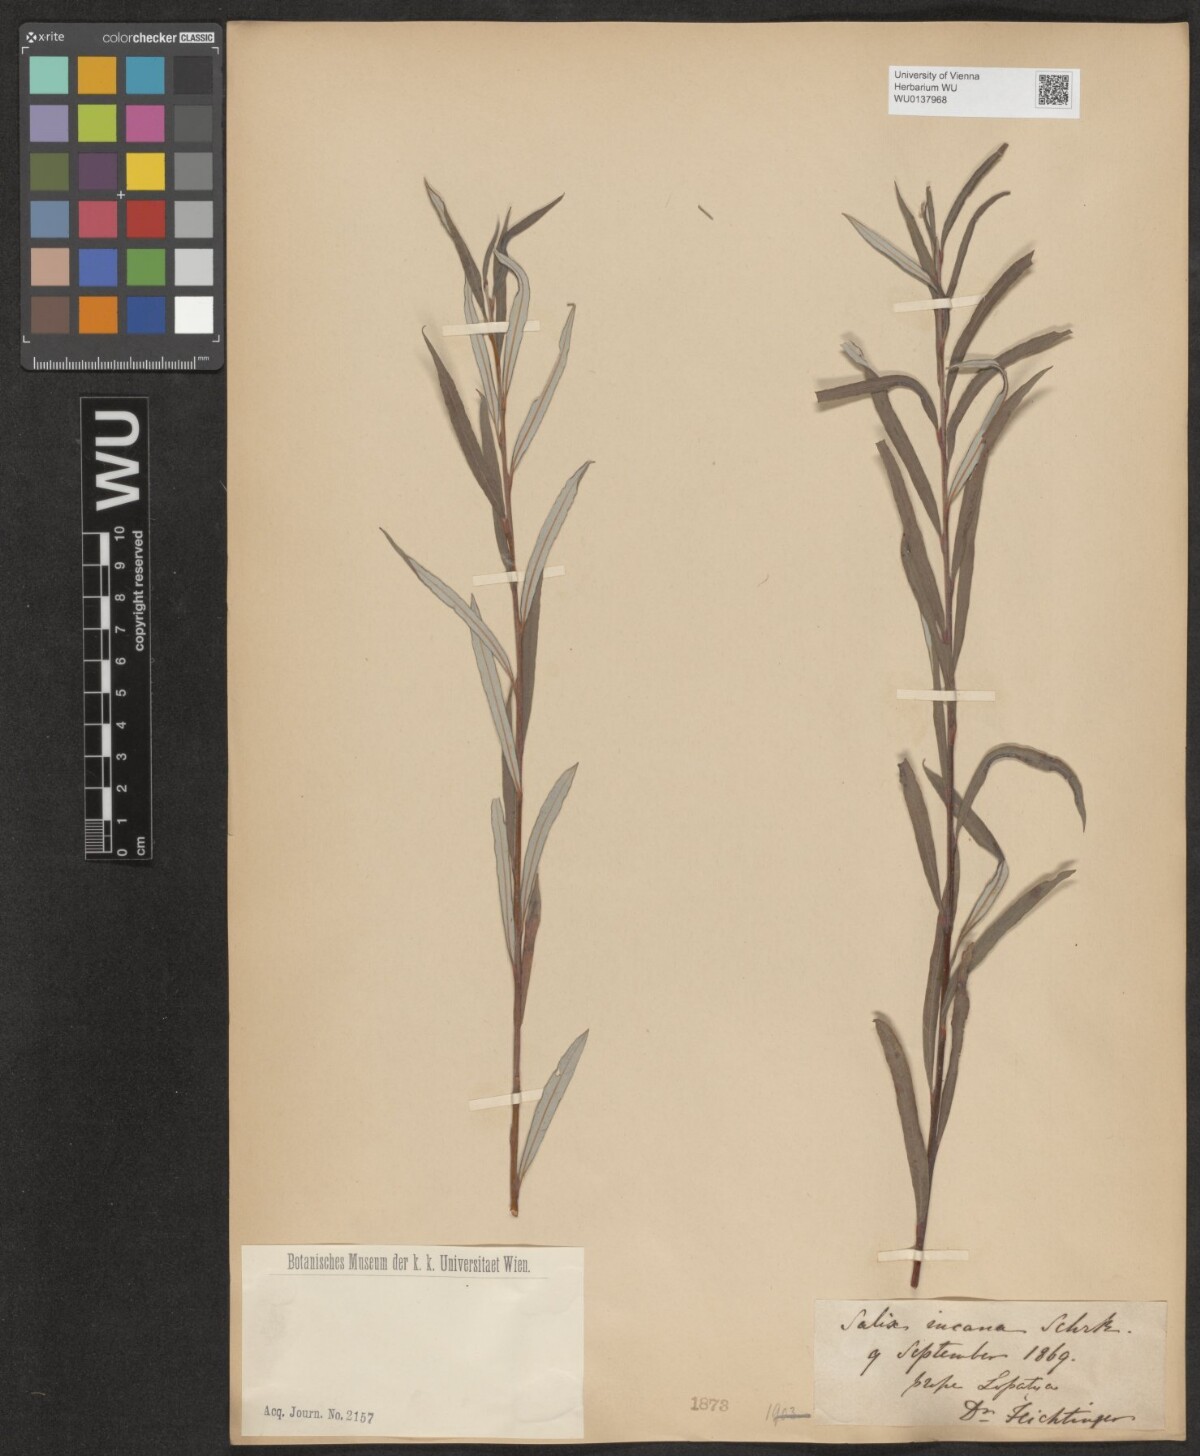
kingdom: Plantae
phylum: Tracheophyta
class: Magnoliopsida
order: Malpighiales
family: Salicaceae
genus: Salix
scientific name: Salix eleagnos
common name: Elaeagnus willow
